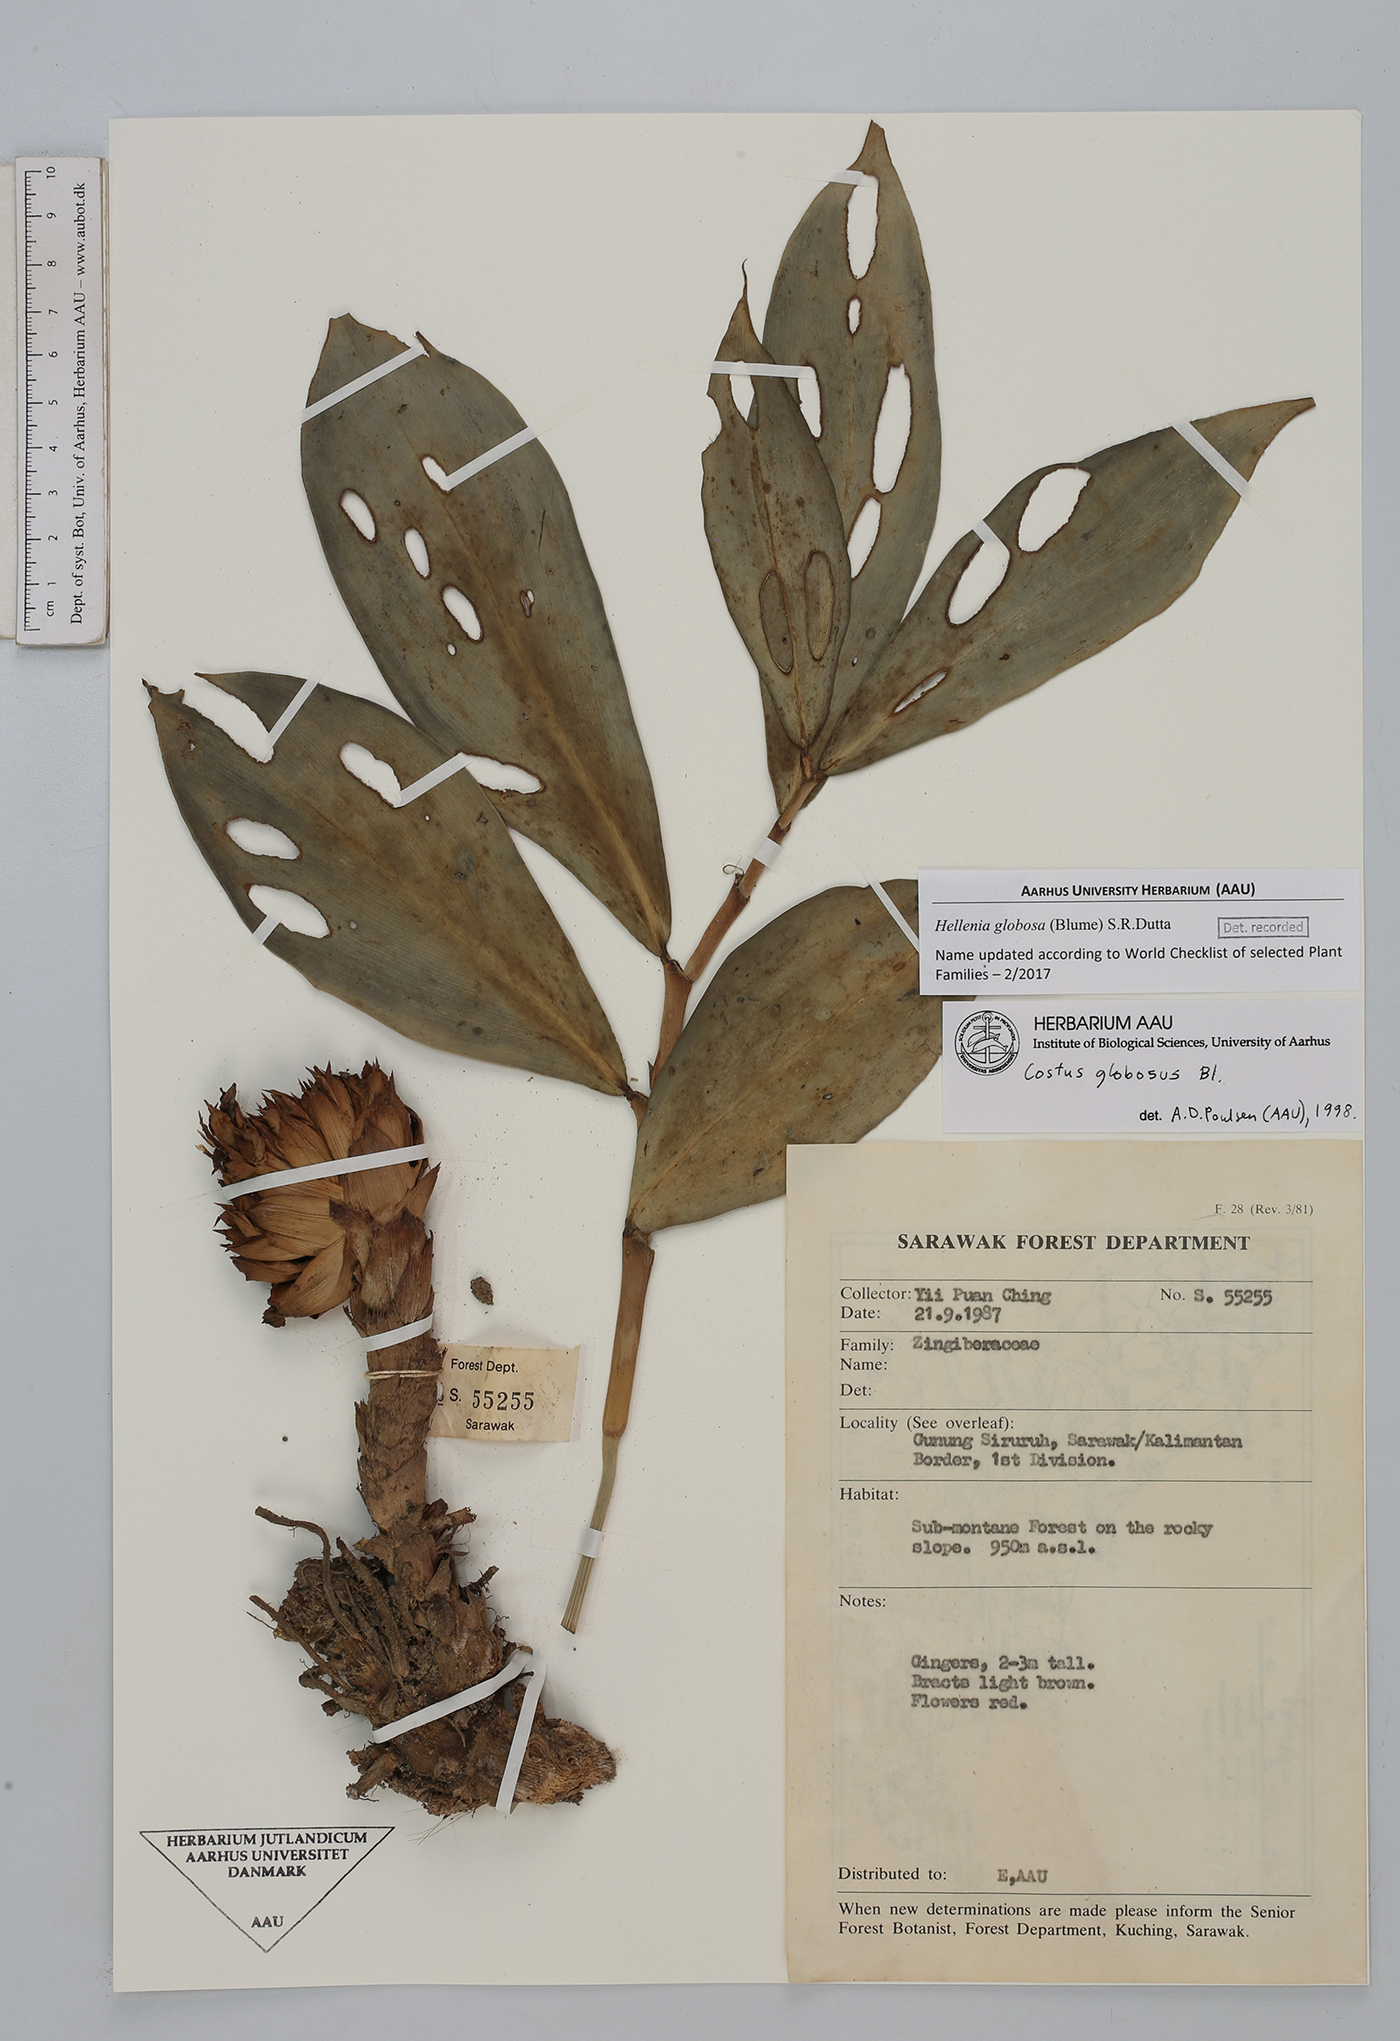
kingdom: Plantae
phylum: Tracheophyta
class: Liliopsida
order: Zingiberales
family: Costaceae
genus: Hellenia
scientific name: Hellenia globosa
